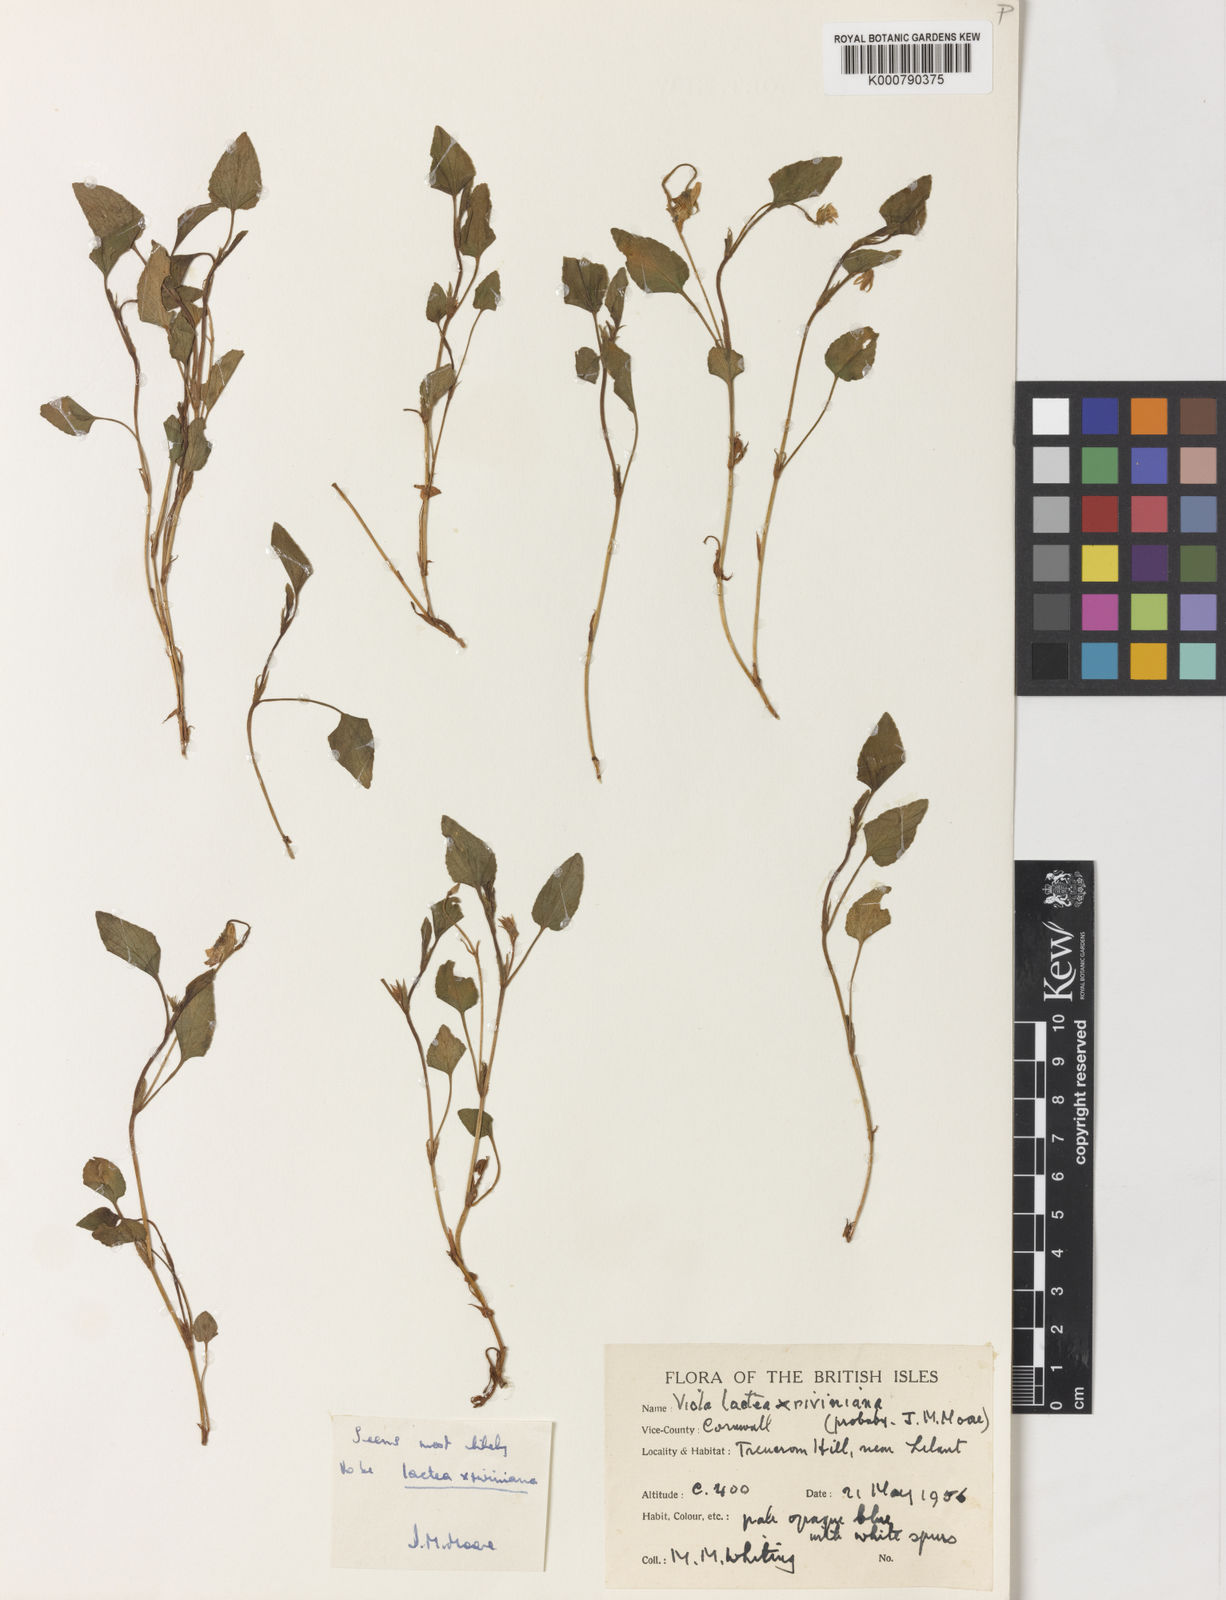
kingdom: Plantae
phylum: Tracheophyta
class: Magnoliopsida
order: Malpighiales
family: Violaceae
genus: Viola
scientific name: Viola lactea
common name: Pale dog-violet
